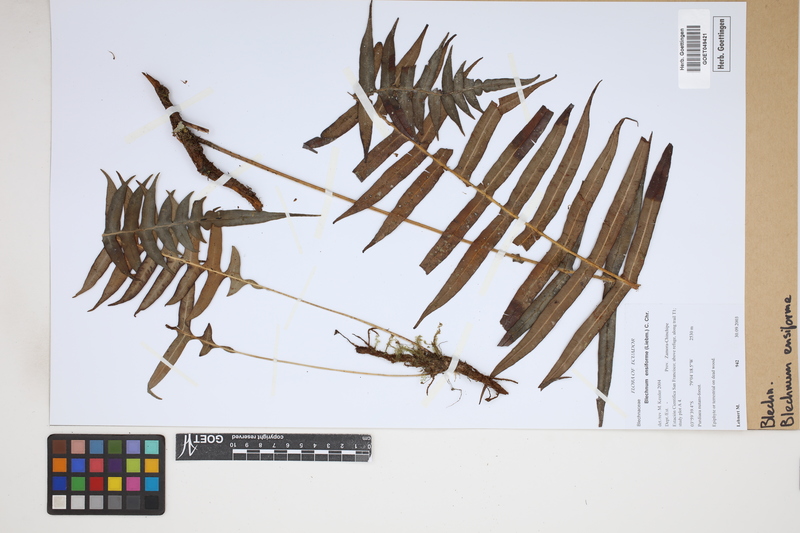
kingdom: Plantae
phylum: Tracheophyta
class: Polypodiopsida
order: Polypodiales
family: Blechnaceae
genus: Lomaridium
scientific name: Lomaridium ensiforme
